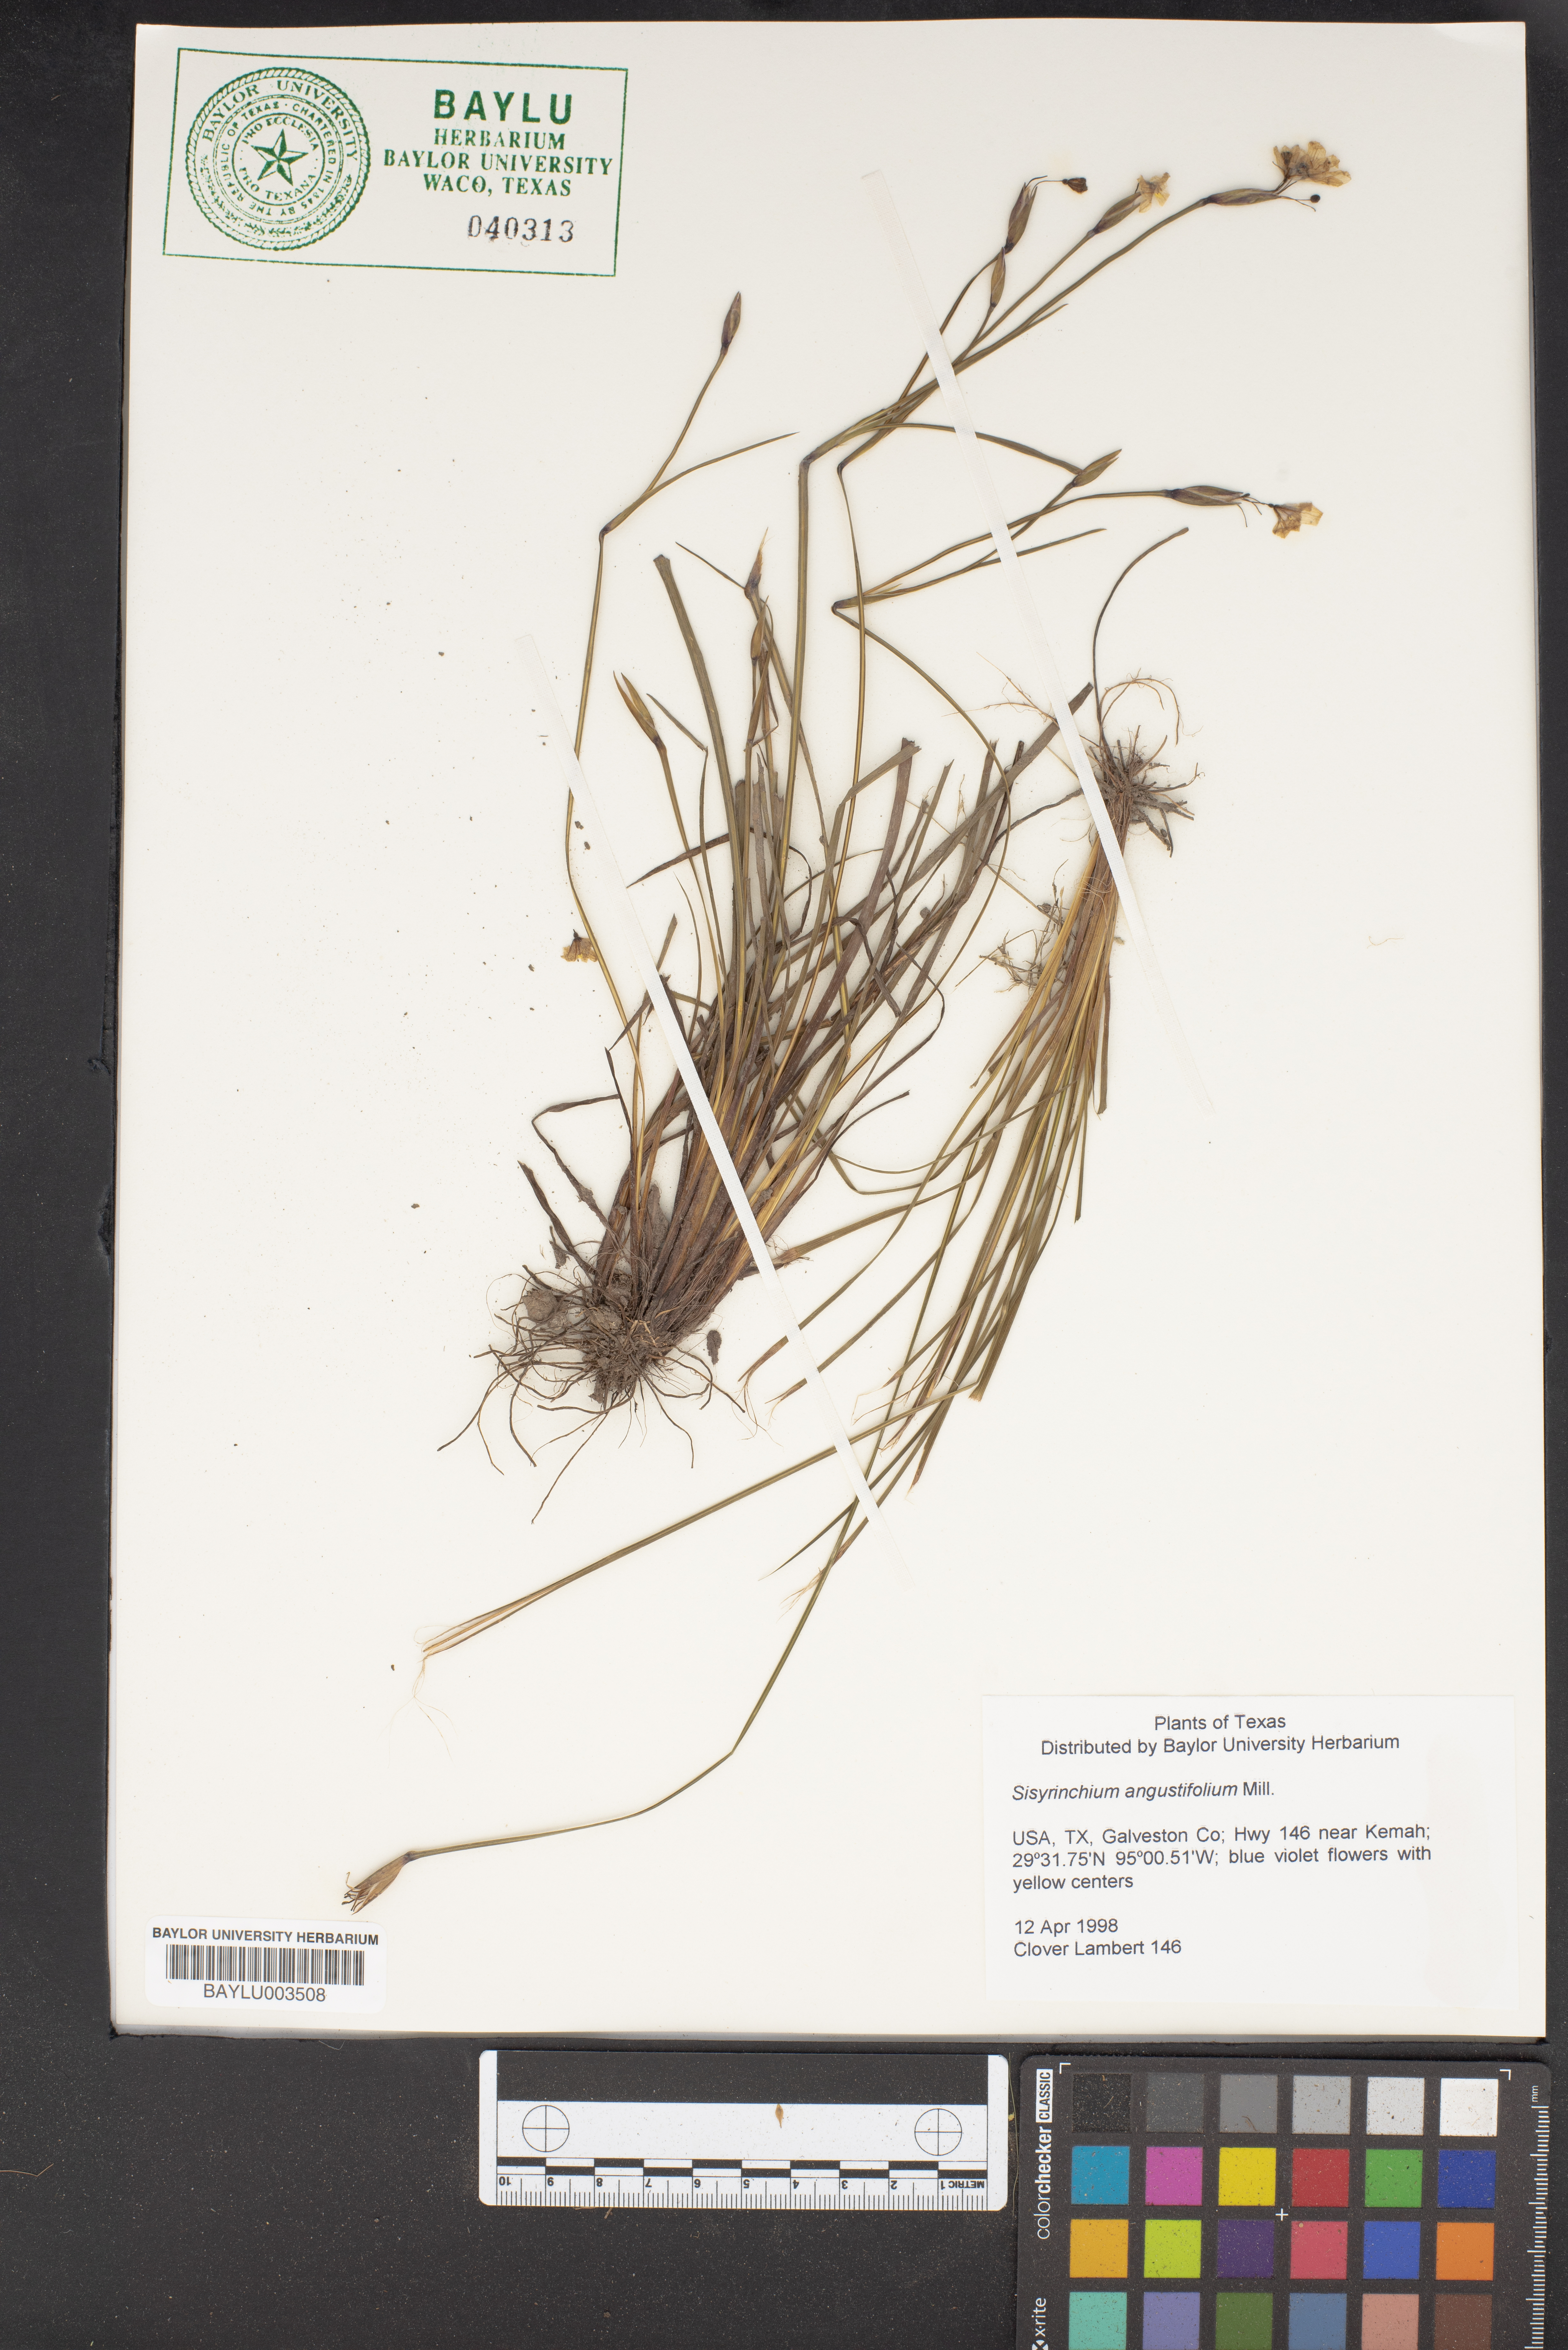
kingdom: Plantae
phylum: Tracheophyta
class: Liliopsida
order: Asparagales
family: Iridaceae
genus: Sisyrinchium
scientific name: Sisyrinchium angustifolium
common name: Narrow-leaf blue-eyed-grass
